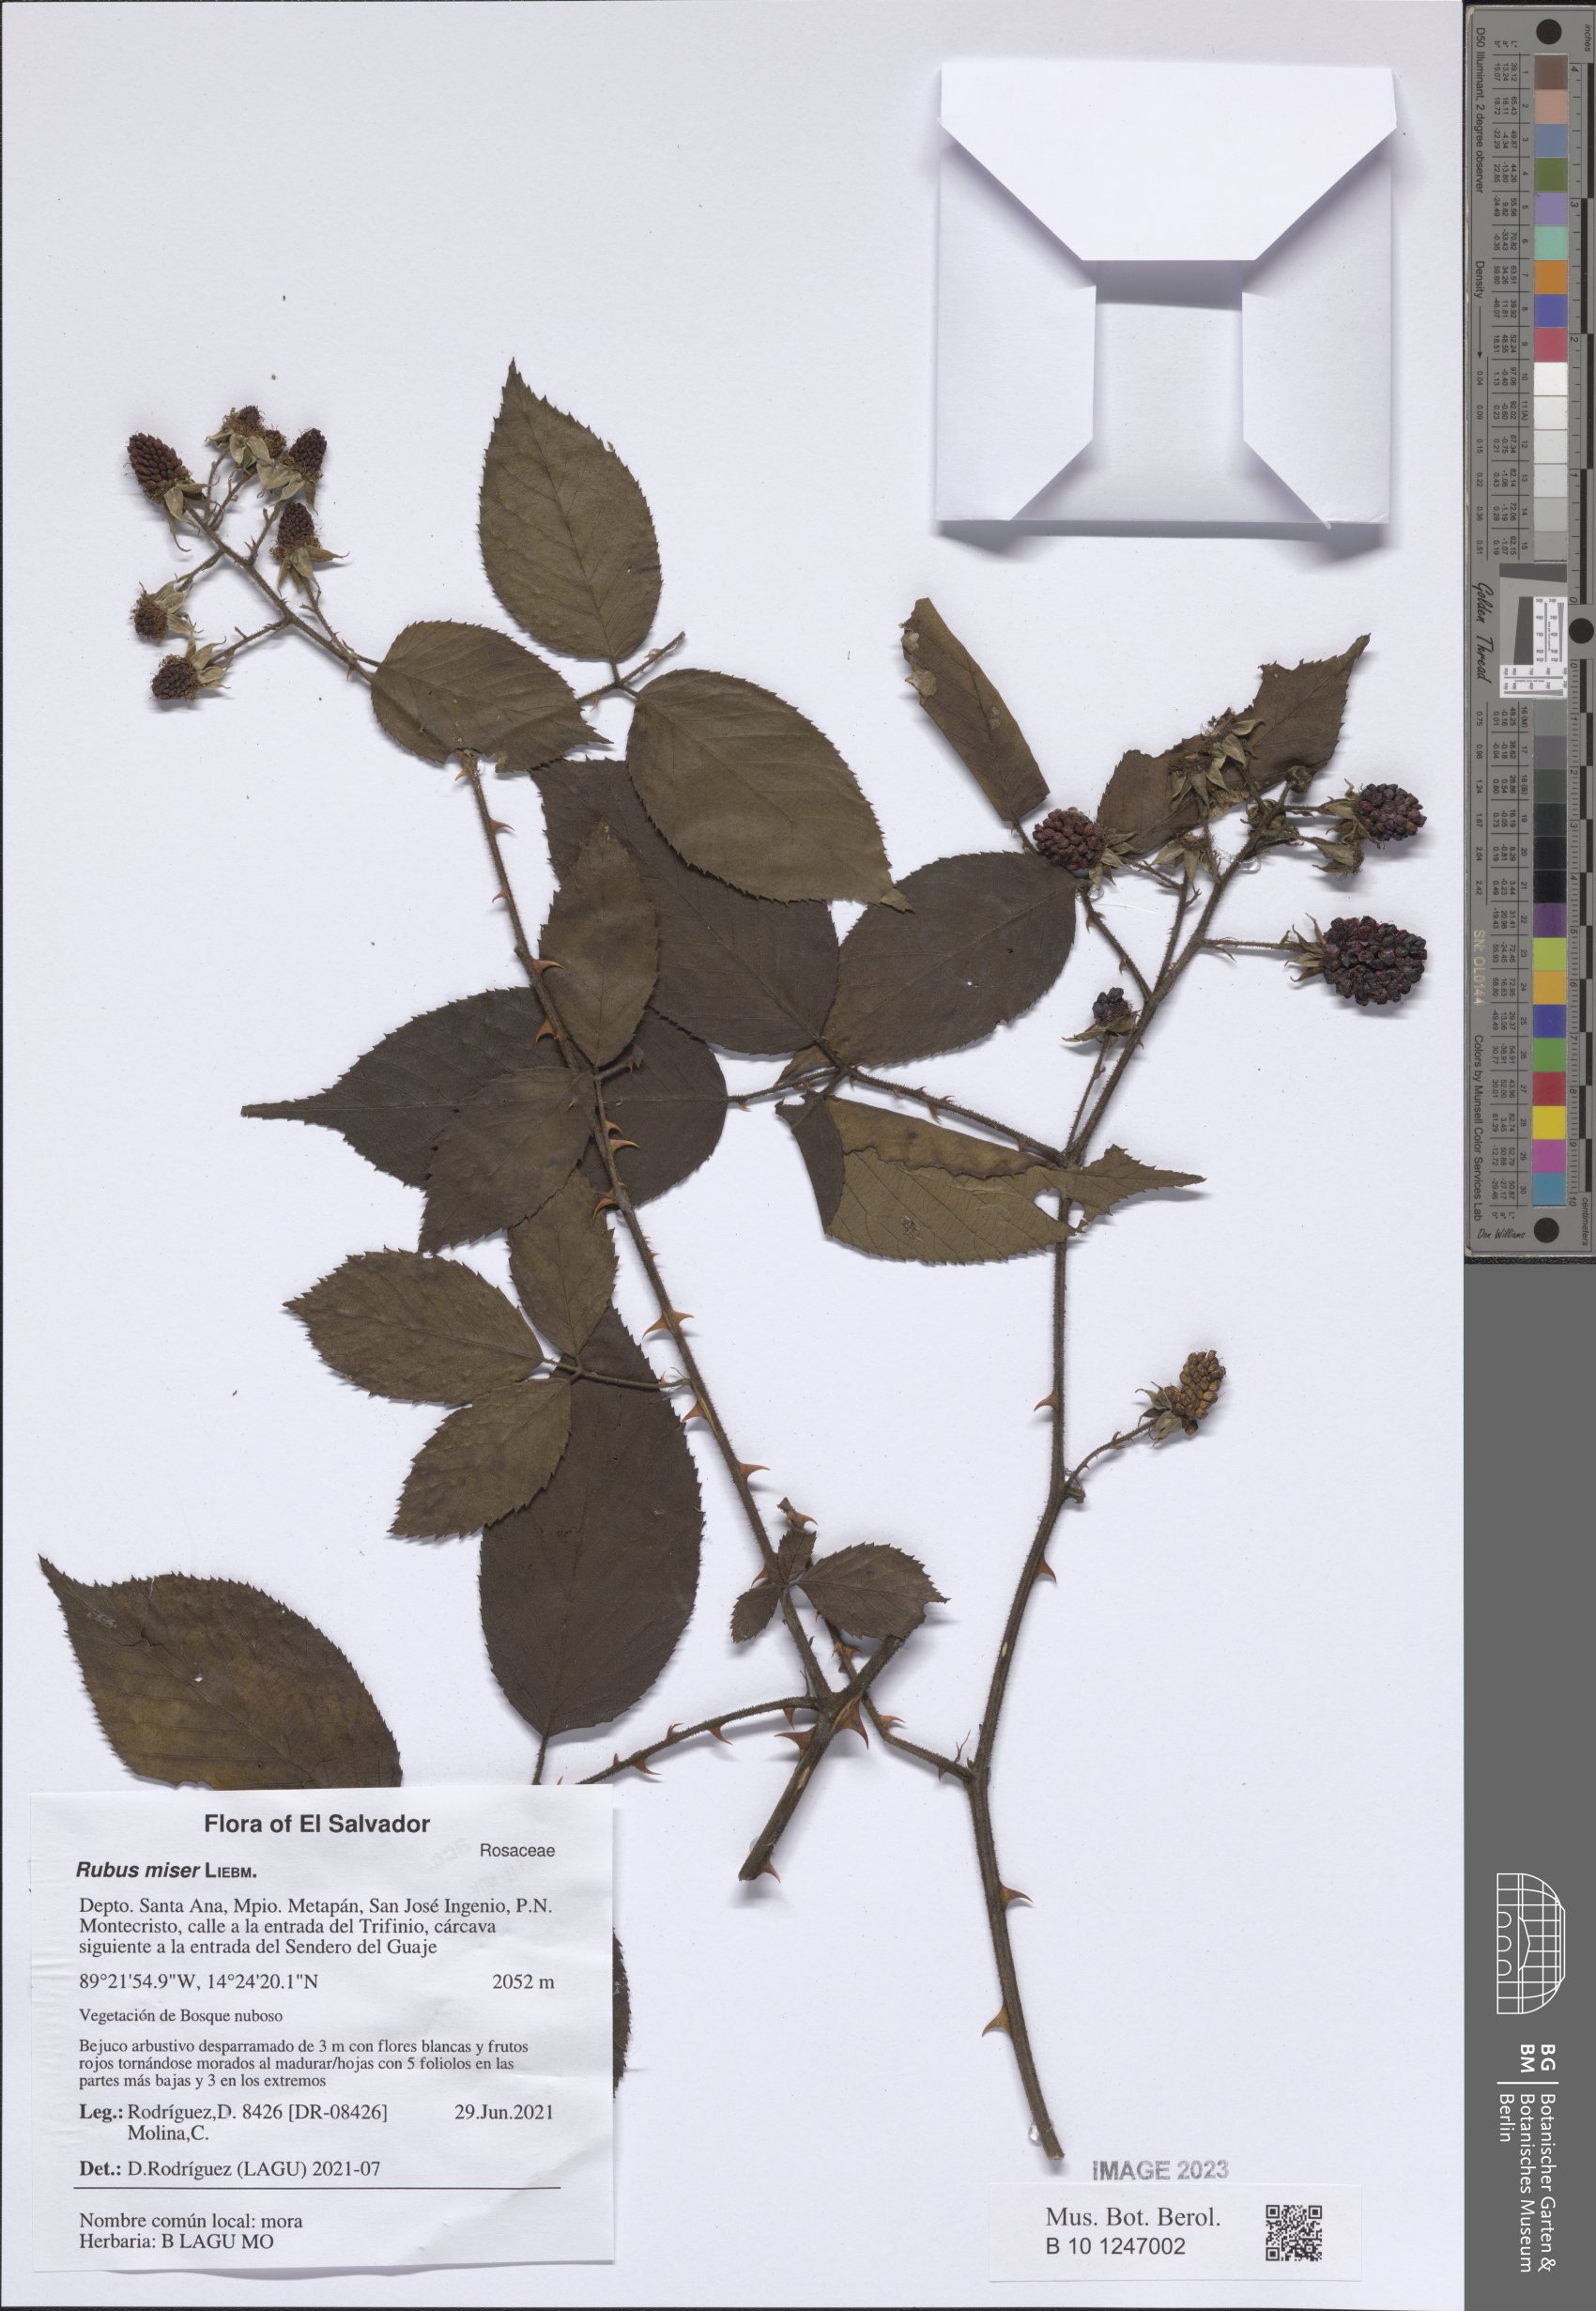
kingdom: Plantae
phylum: Tracheophyta
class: Magnoliopsida
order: Rosales
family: Rosaceae
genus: Rubus
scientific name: Rubus miser
